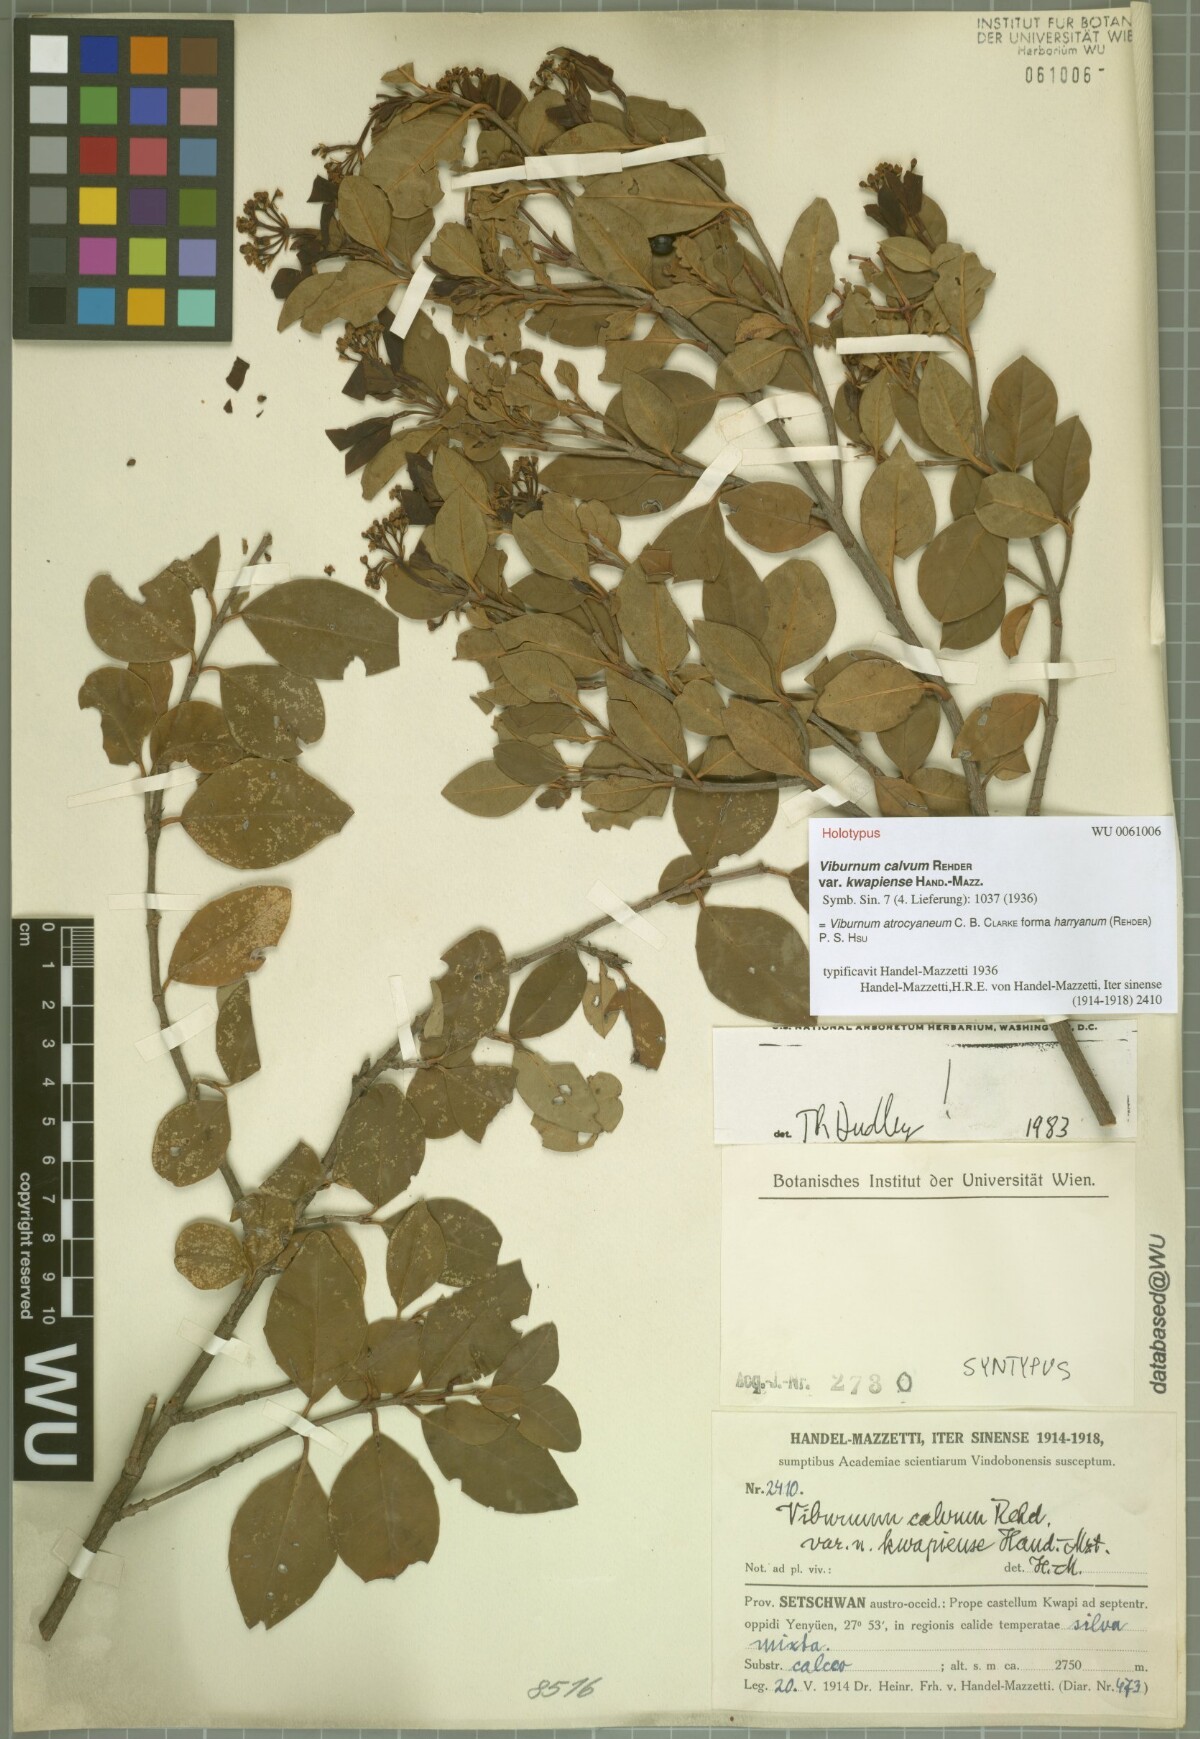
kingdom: Plantae
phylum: Tracheophyta
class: Magnoliopsida
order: Dipsacales
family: Viburnaceae
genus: Viburnum
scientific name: Viburnum atrocyaneum
